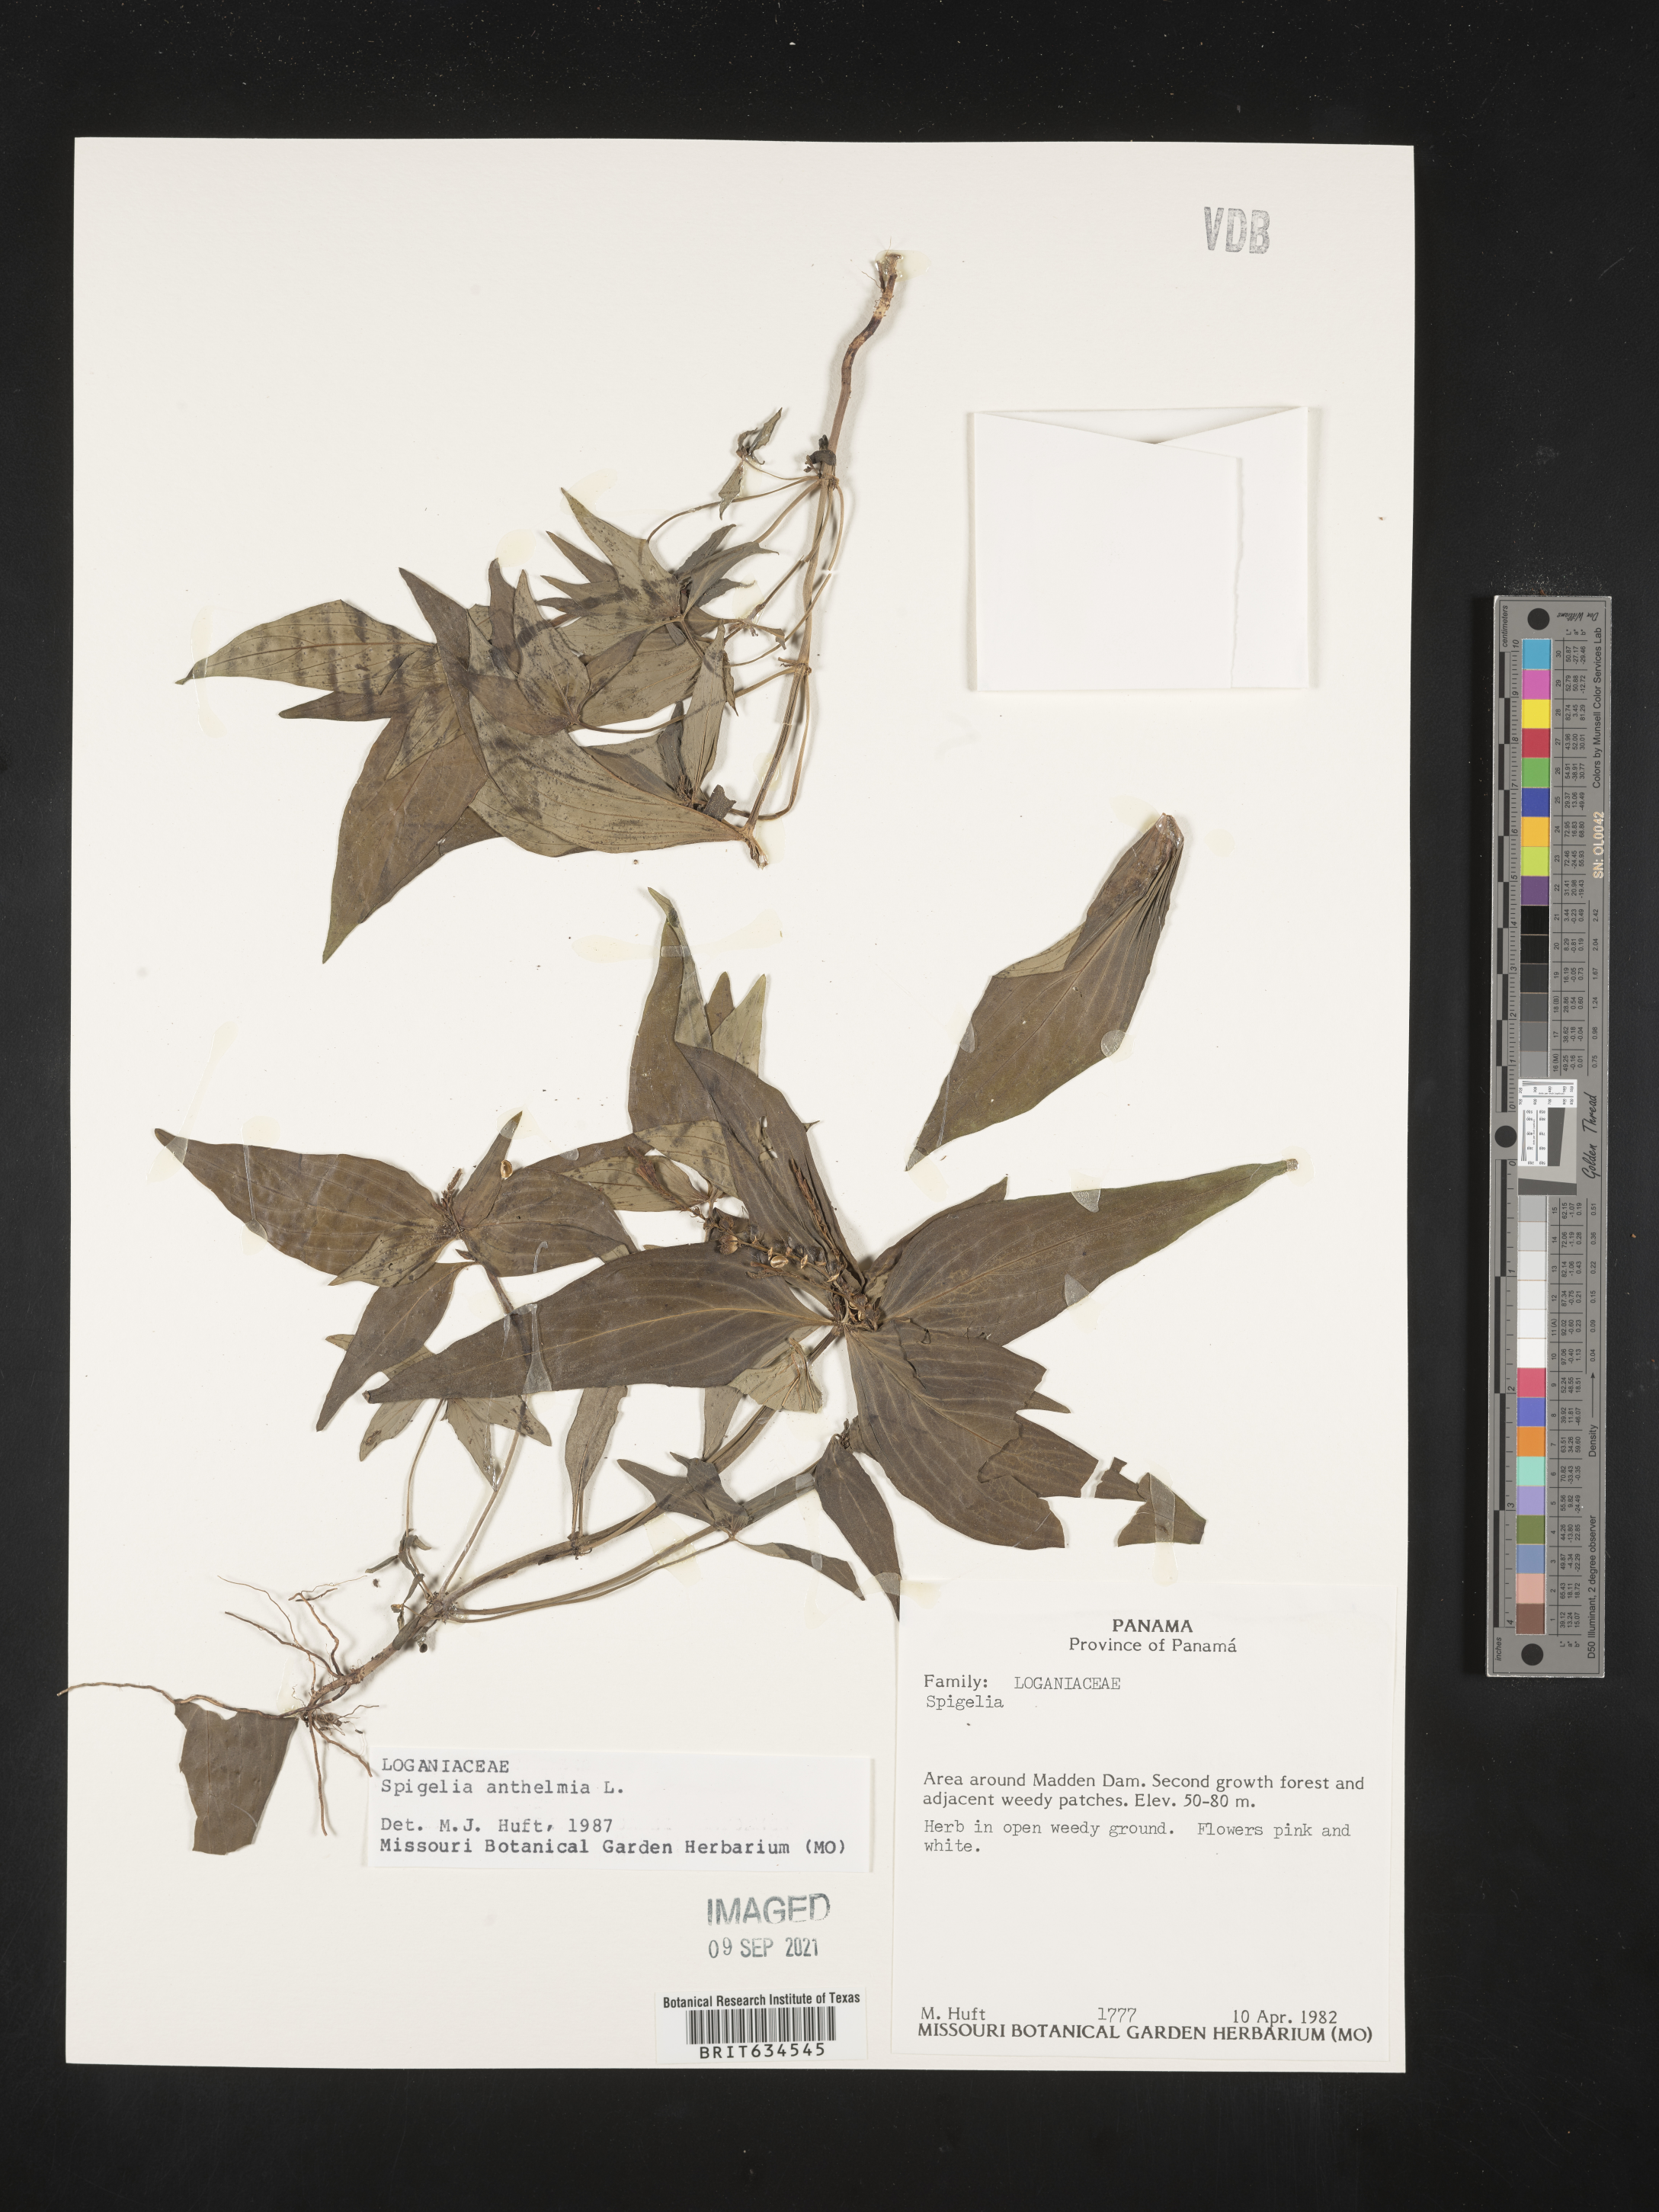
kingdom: Plantae
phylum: Tracheophyta
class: Magnoliopsida
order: Gentianales
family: Loganiaceae
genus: Spigelia
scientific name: Spigelia
